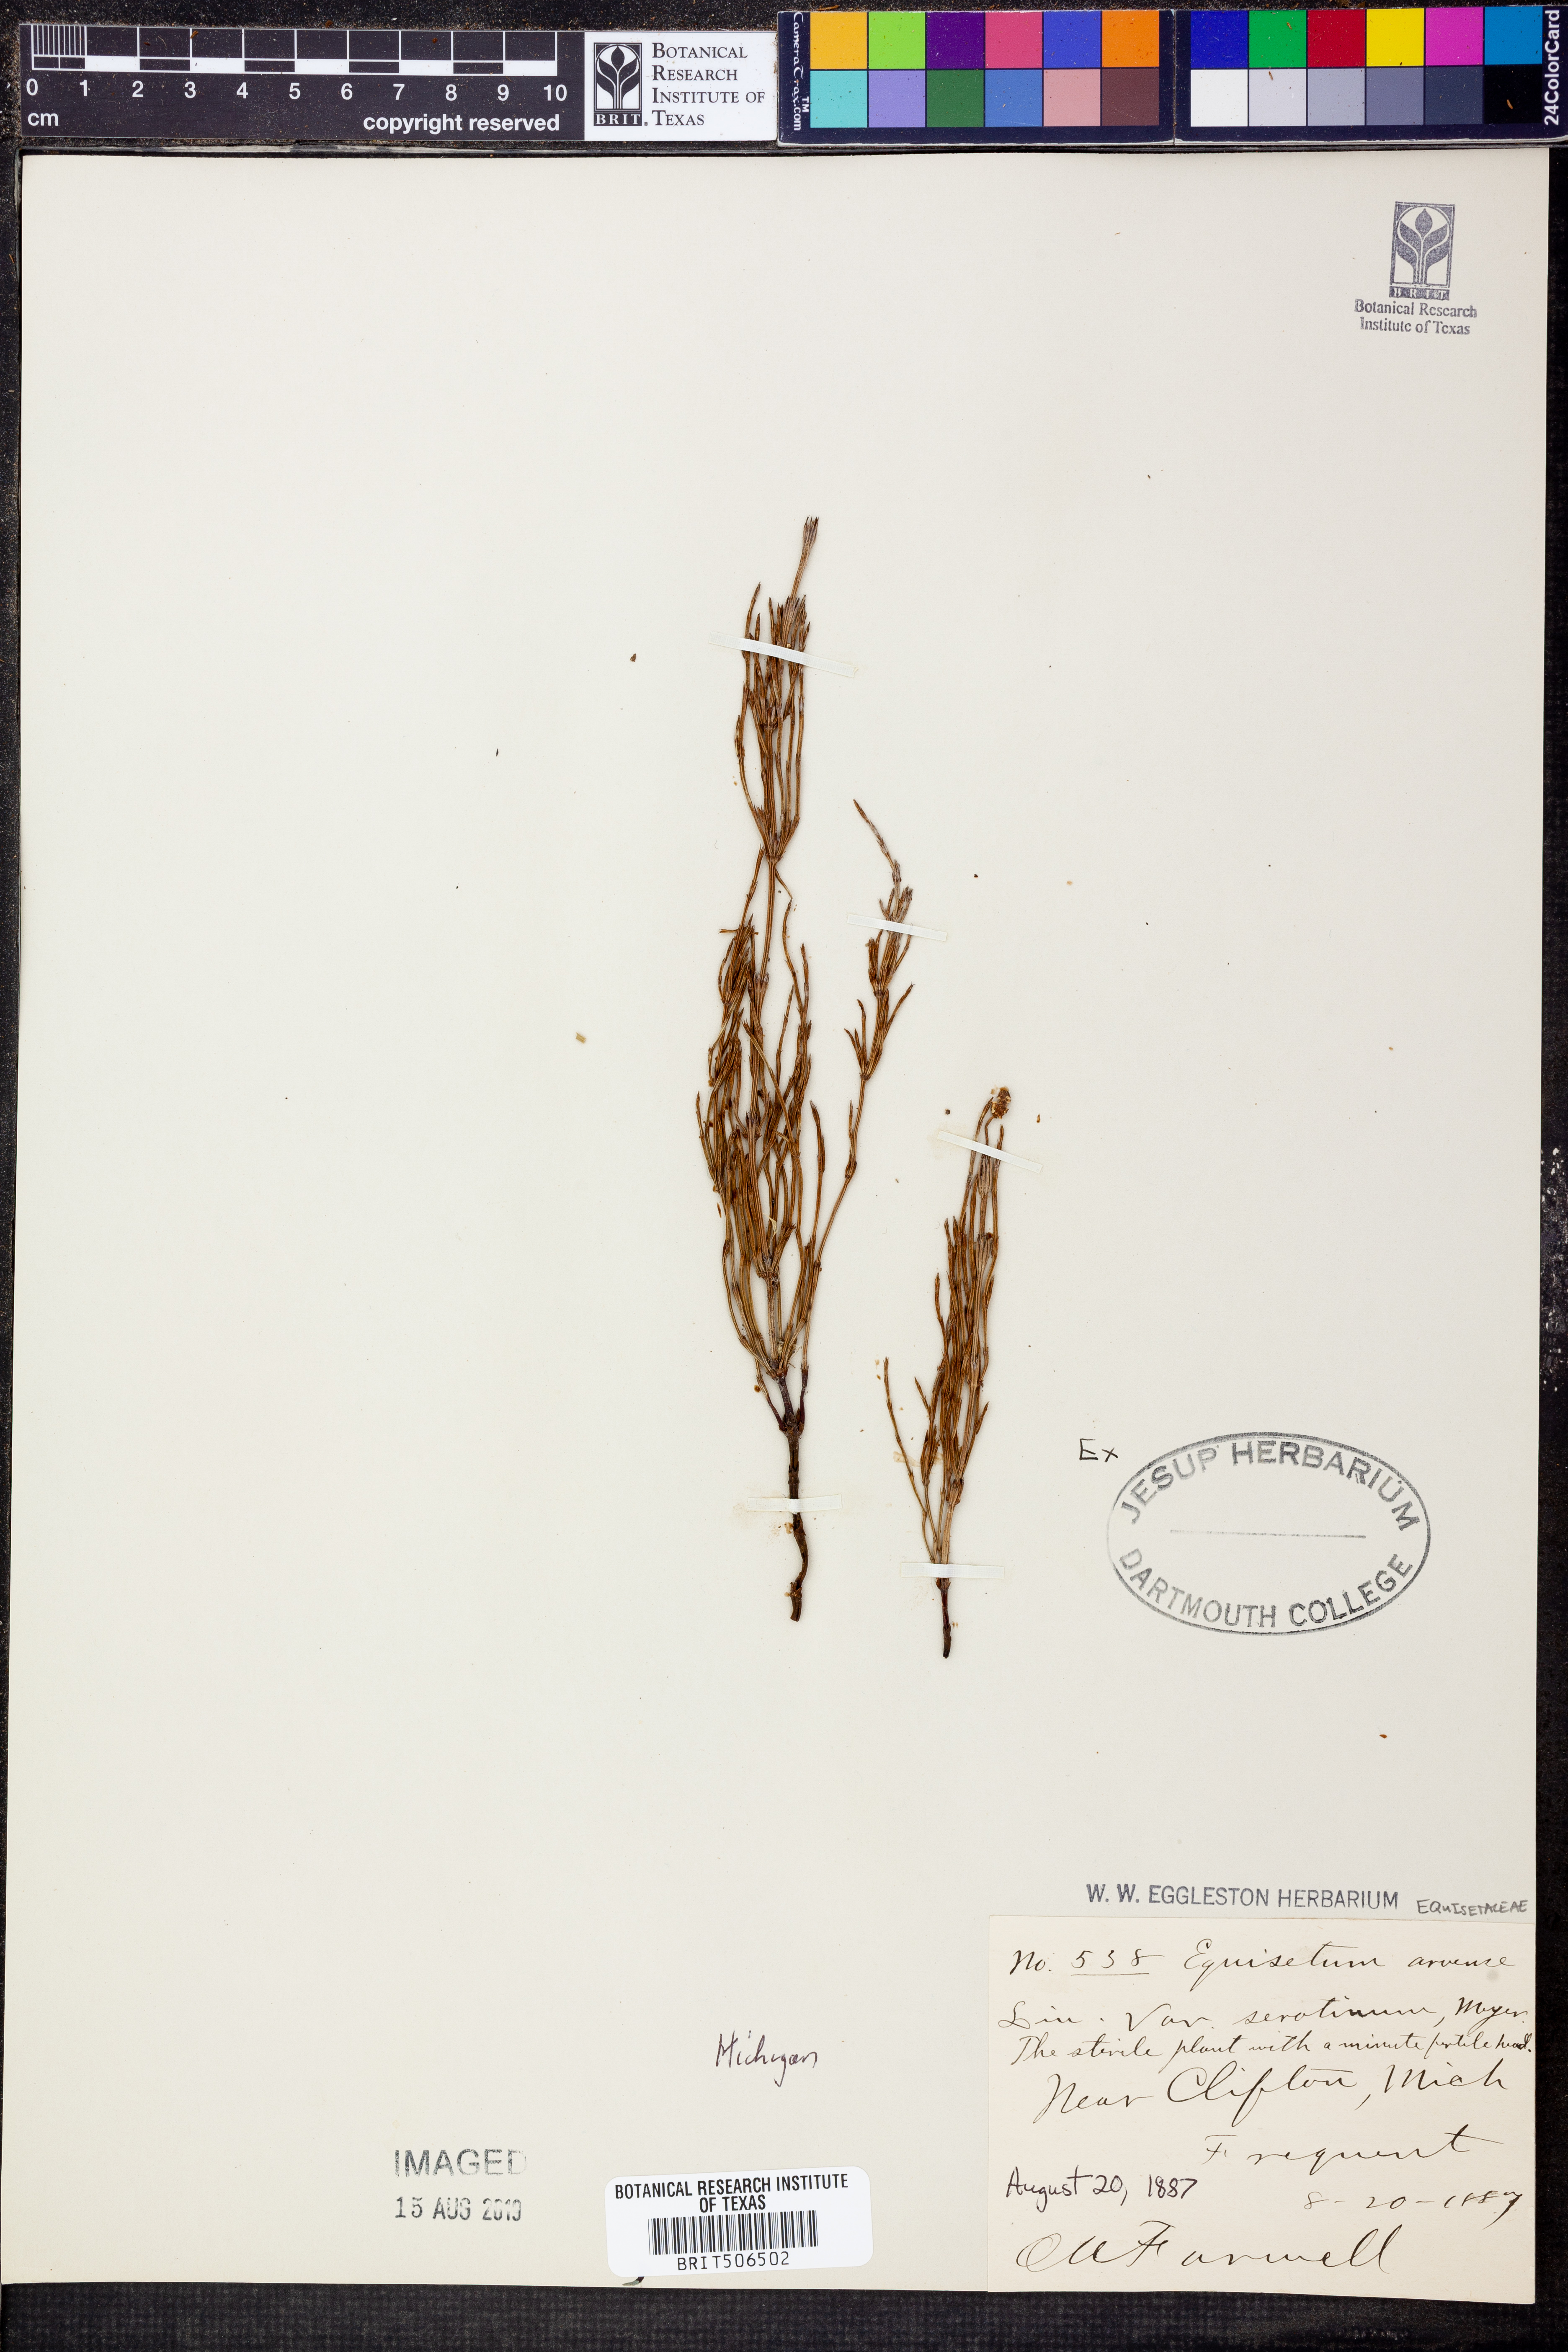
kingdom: Plantae
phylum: Tracheophyta
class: Polypodiopsida
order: Equisetales
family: Equisetaceae
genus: Equisetum
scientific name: Equisetum arvense
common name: Field horsetail
